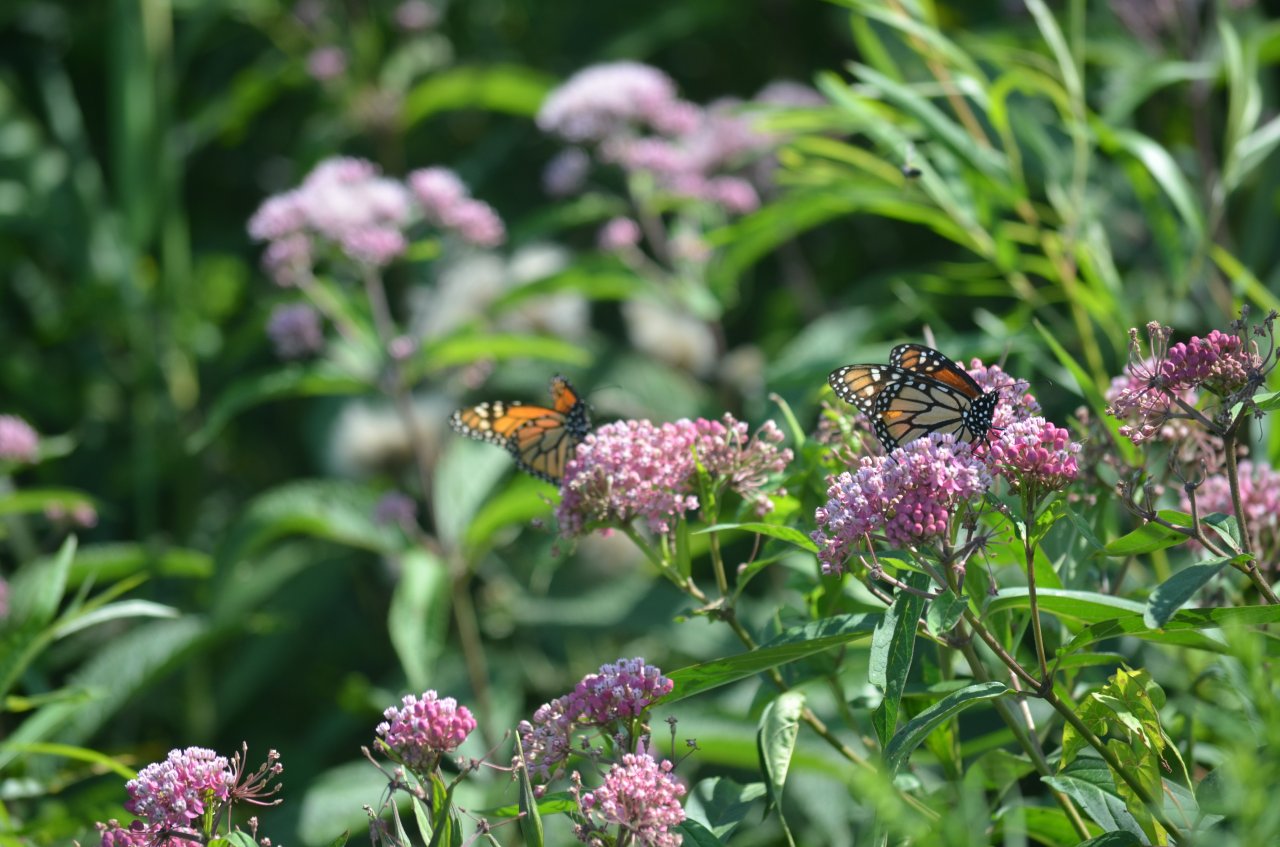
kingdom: Animalia
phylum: Arthropoda
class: Insecta
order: Lepidoptera
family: Nymphalidae
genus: Danaus
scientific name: Danaus plexippus
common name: Monarch
